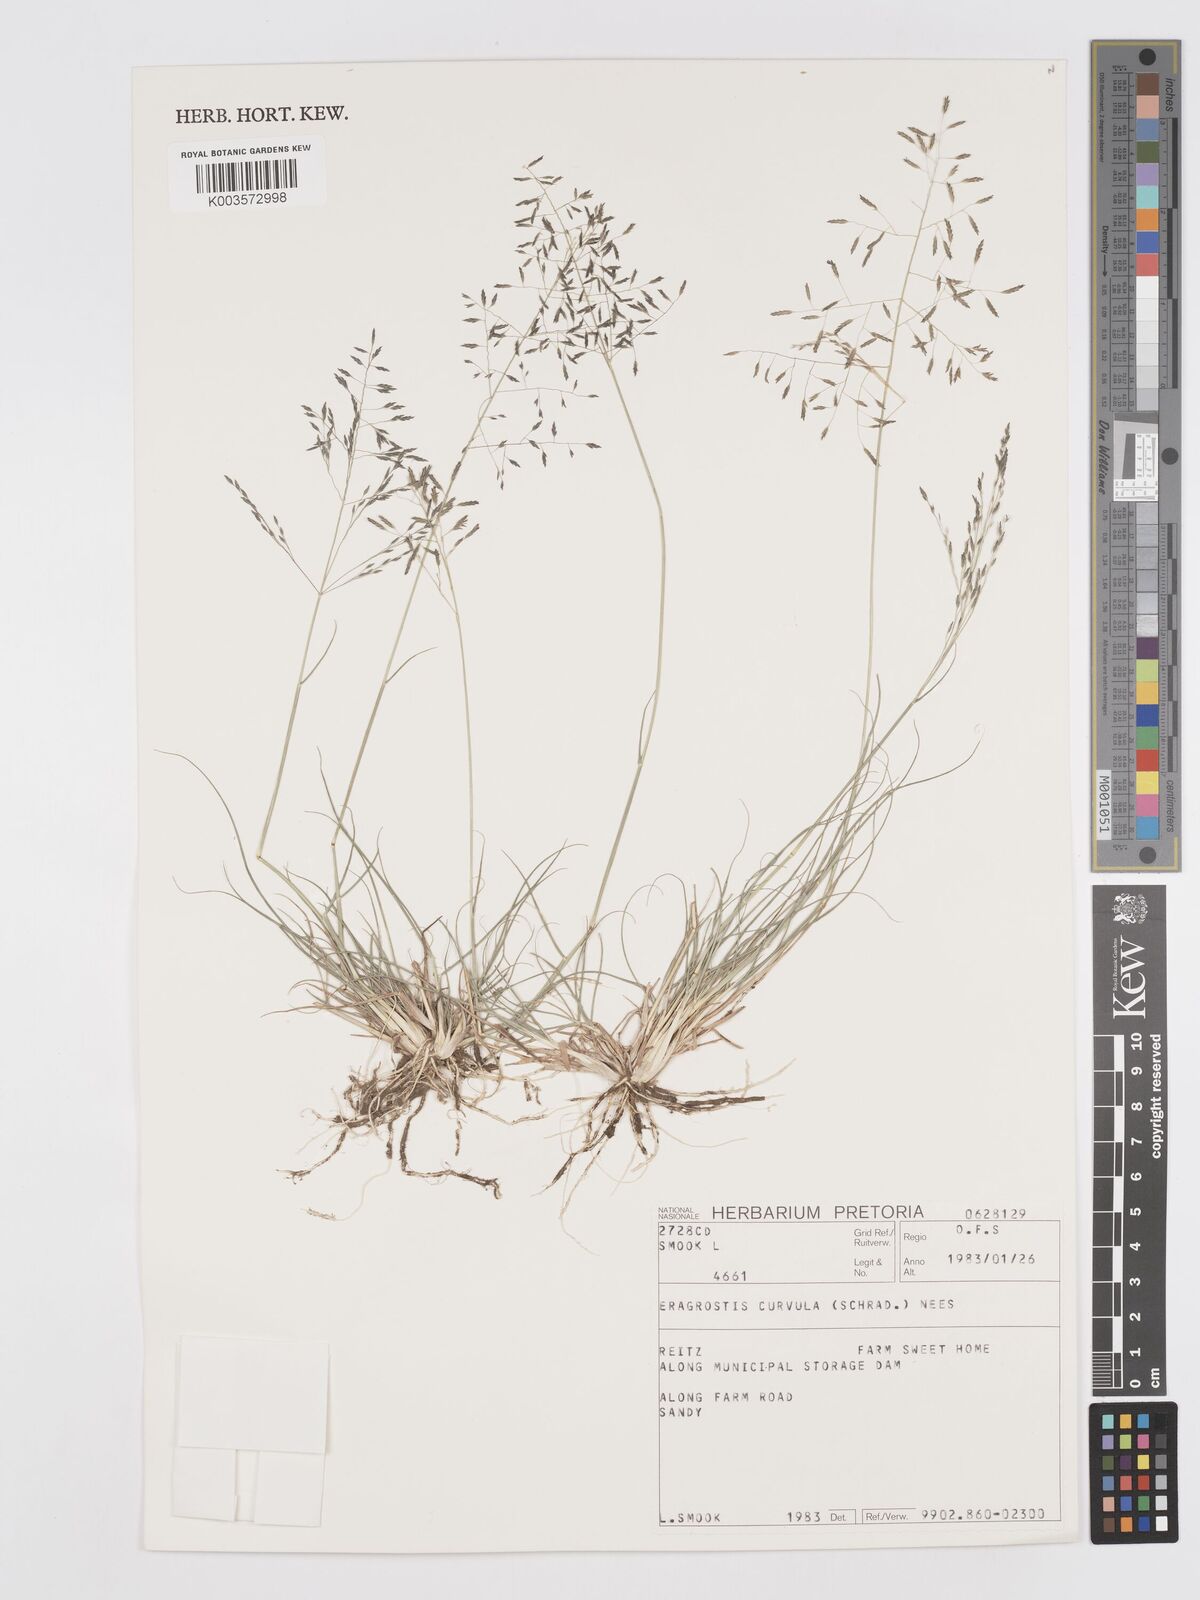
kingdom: Plantae
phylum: Tracheophyta
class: Liliopsida
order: Poales
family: Poaceae
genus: Eragrostis
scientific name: Eragrostis curvula
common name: African love-grass
